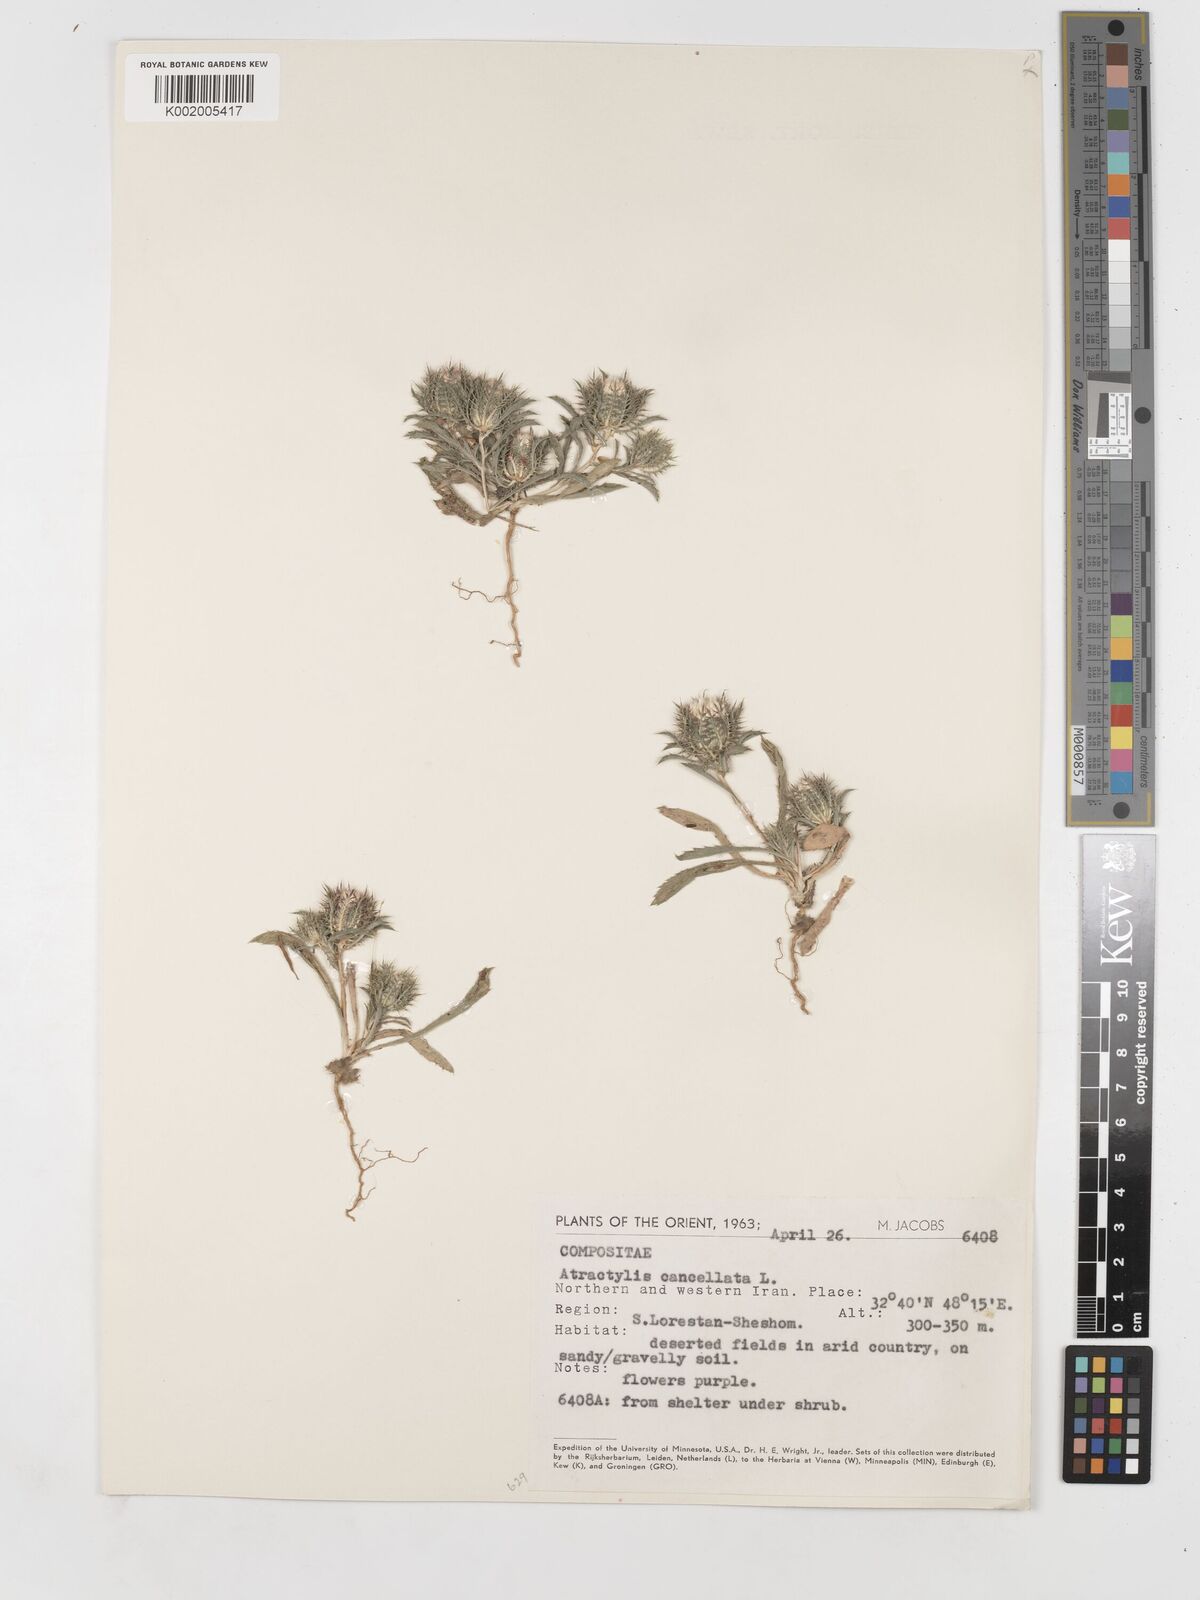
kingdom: Plantae
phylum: Tracheophyta
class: Magnoliopsida
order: Asterales
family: Asteraceae
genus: Atractylis
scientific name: Atractylis cancellata
